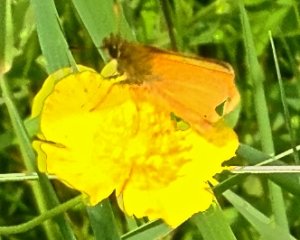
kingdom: Animalia
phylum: Arthropoda
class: Insecta
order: Lepidoptera
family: Hesperiidae
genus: Thymelicus
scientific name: Thymelicus lineola
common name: European Skipper
